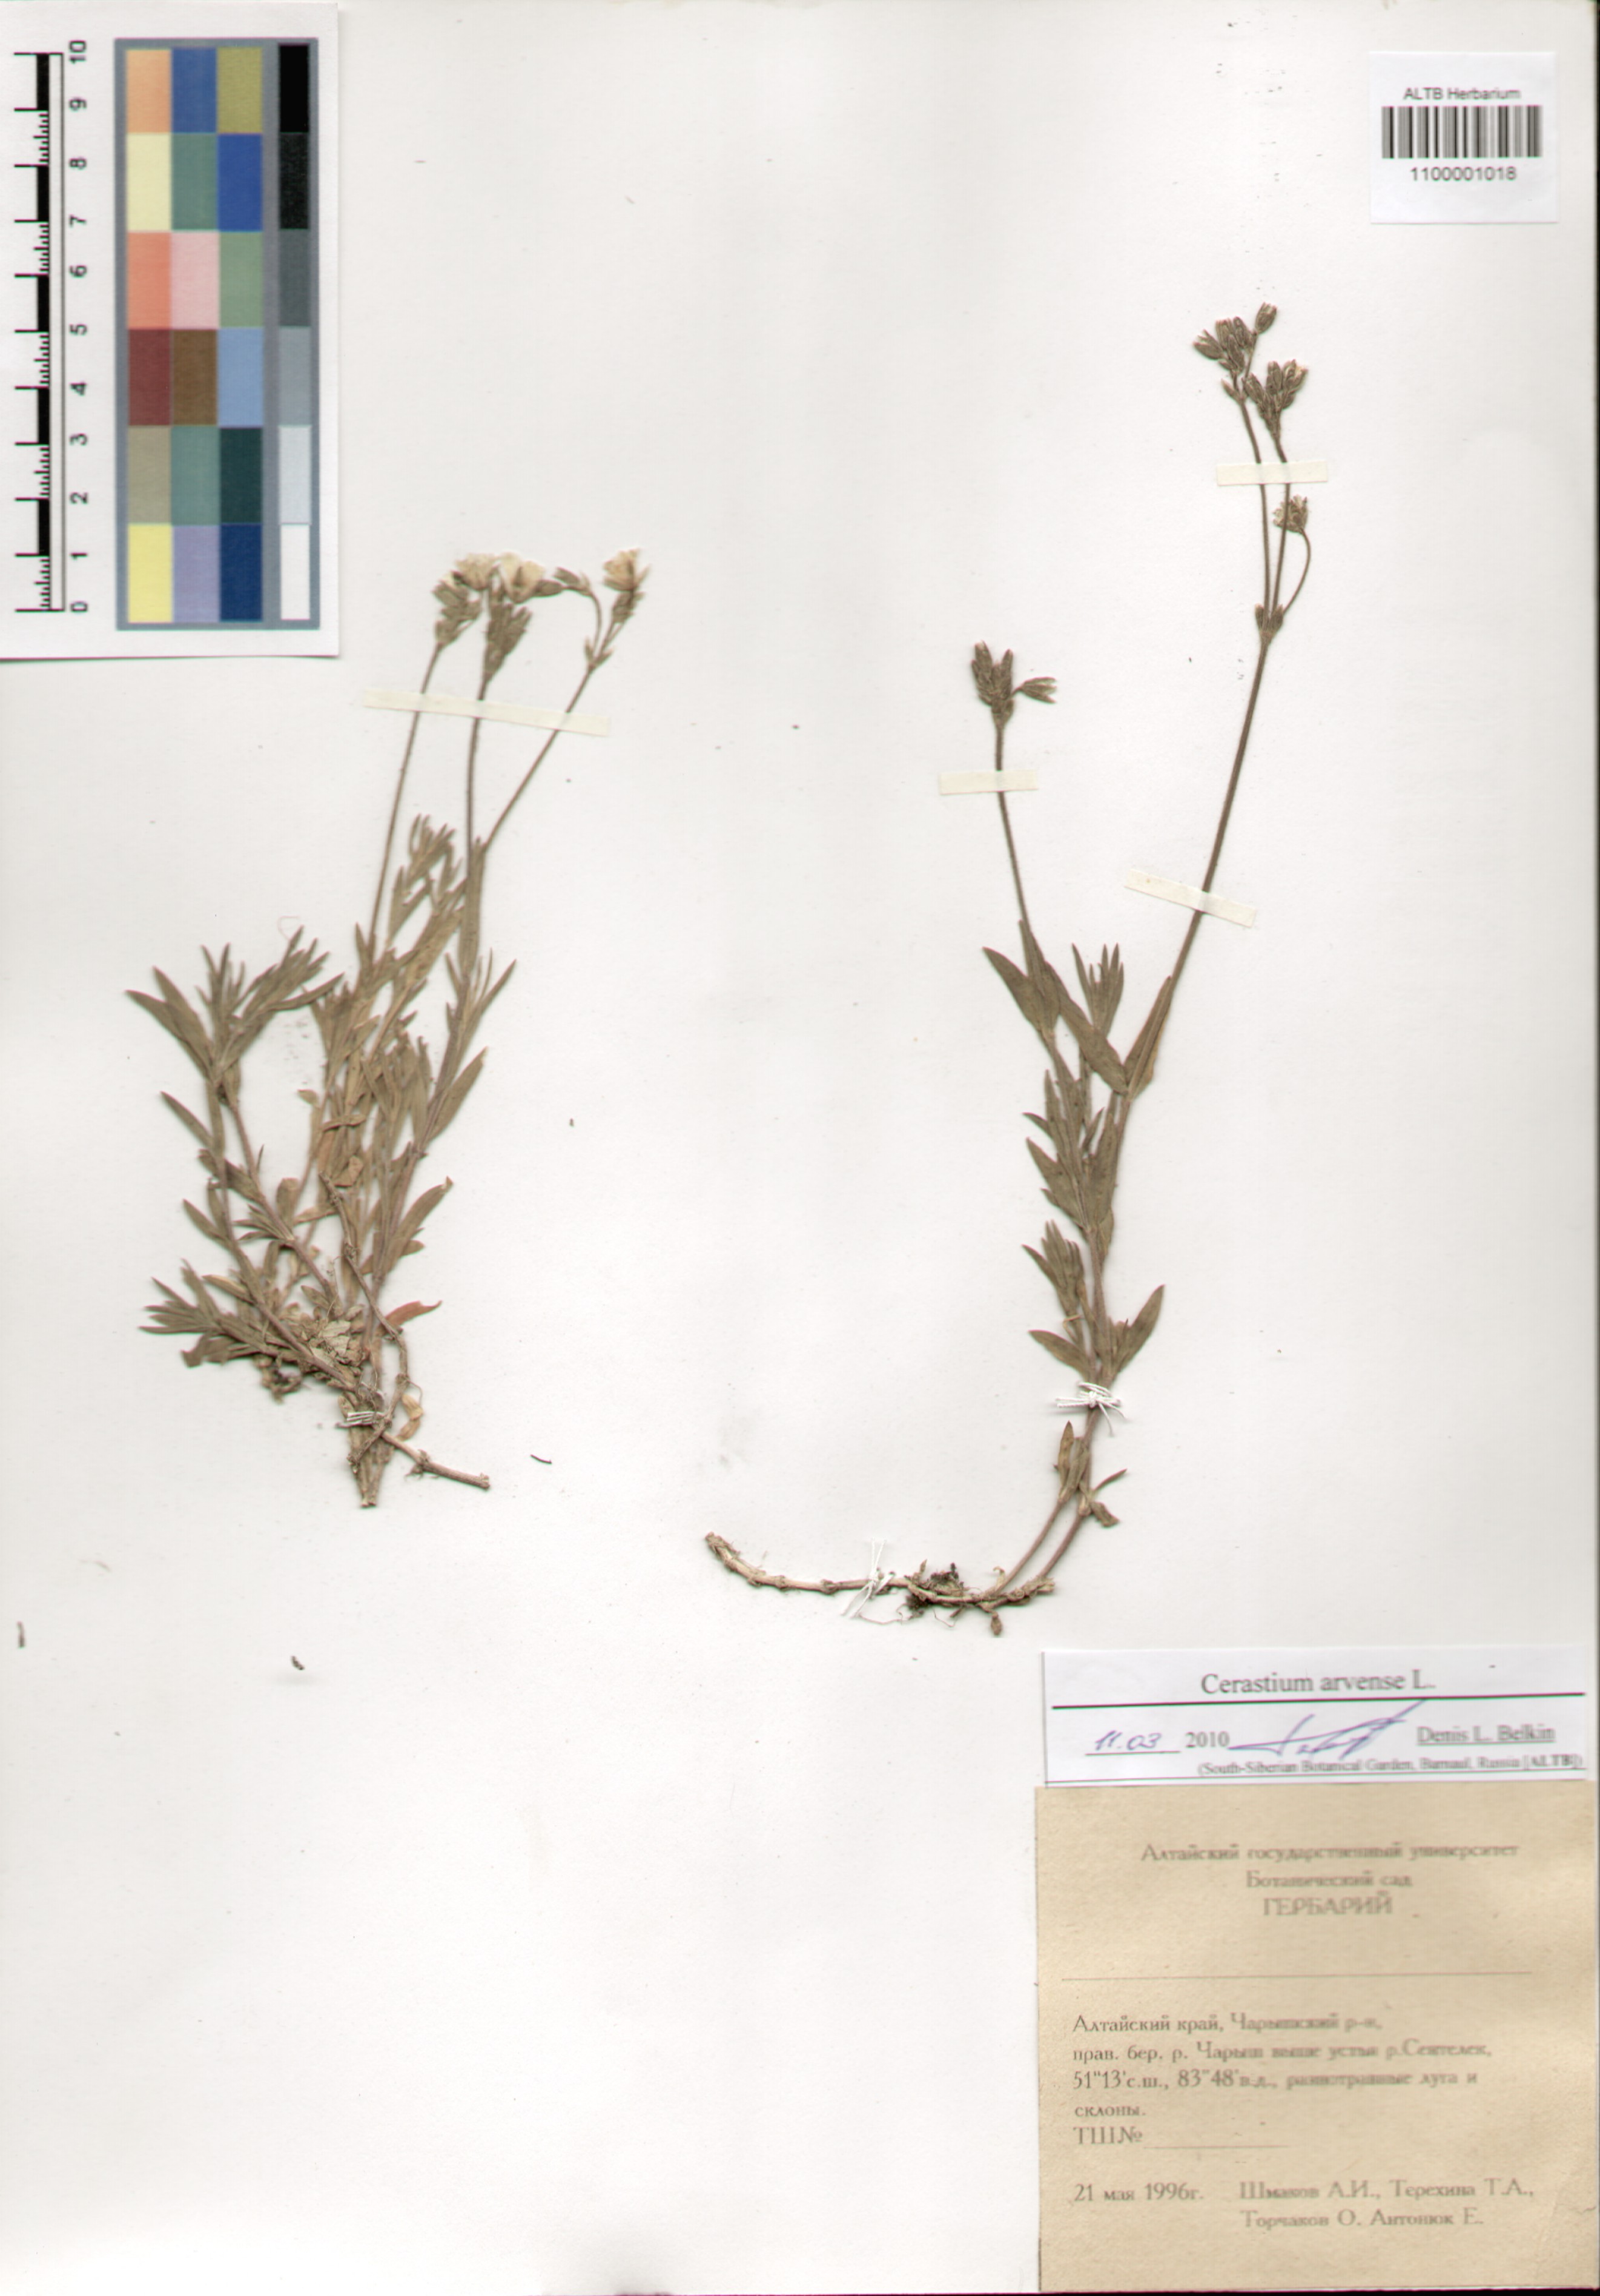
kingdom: Plantae
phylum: Tracheophyta
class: Magnoliopsida
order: Caryophyllales
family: Caryophyllaceae
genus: Cerastium
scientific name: Cerastium arvense
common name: Field mouse-ear
